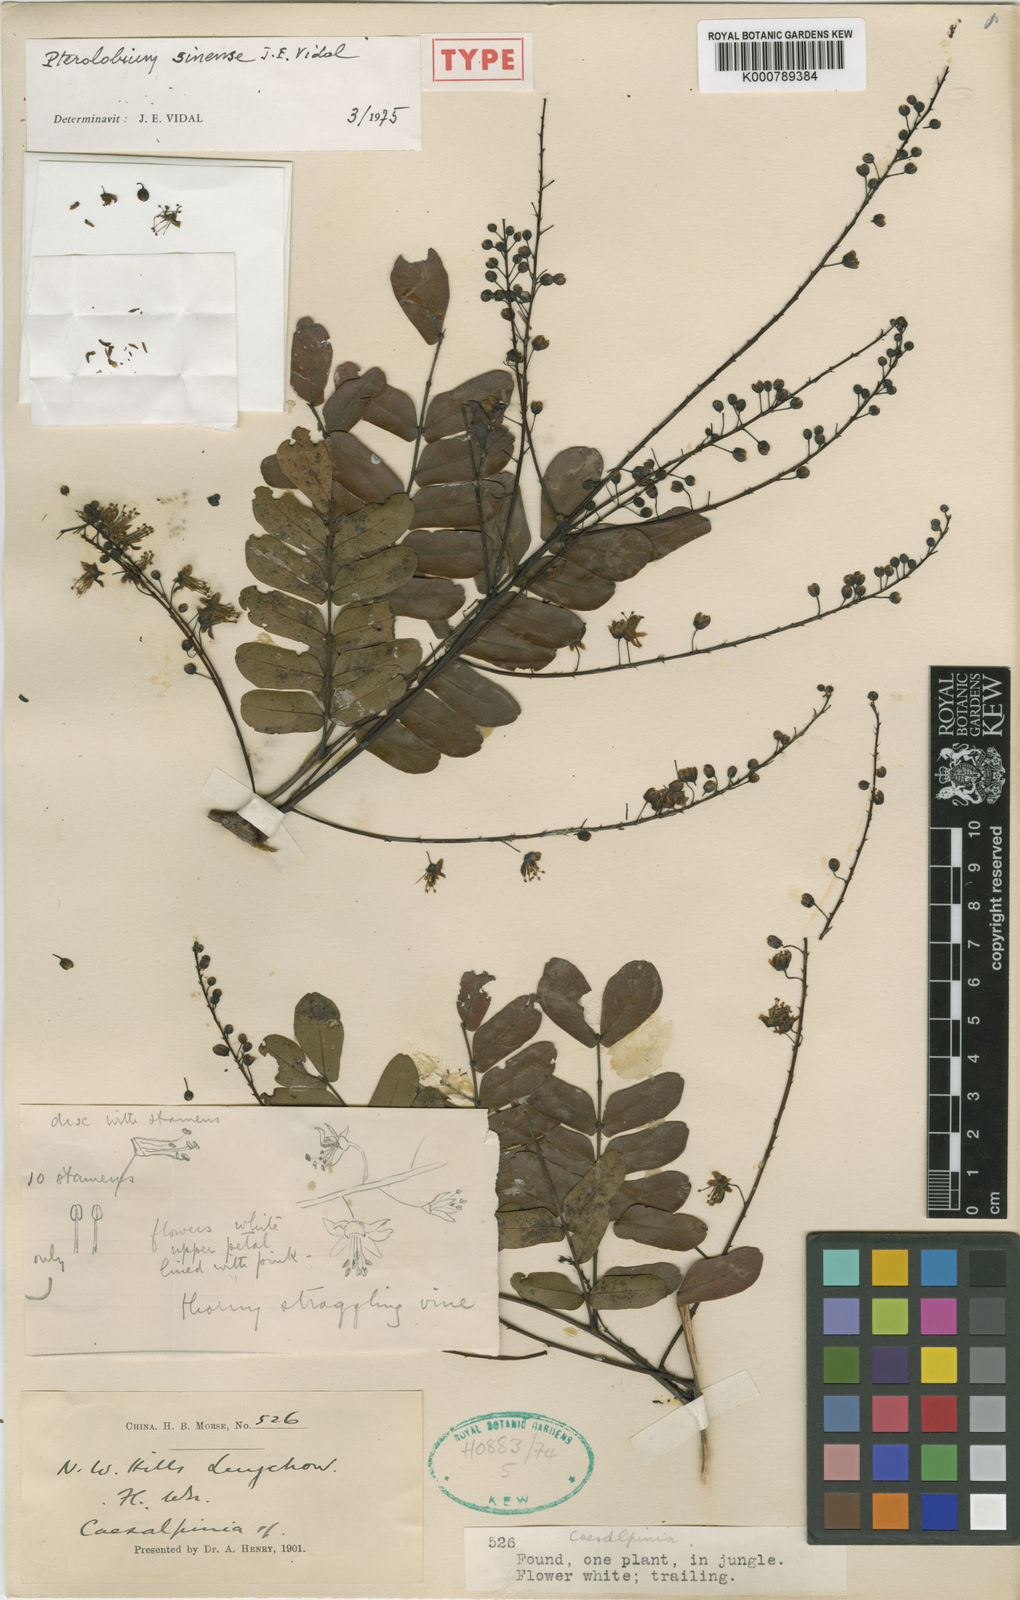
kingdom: Plantae
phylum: Tracheophyta
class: Magnoliopsida
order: Fabales
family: Fabaceae
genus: Pterolobium
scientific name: Pterolobium macropterum
